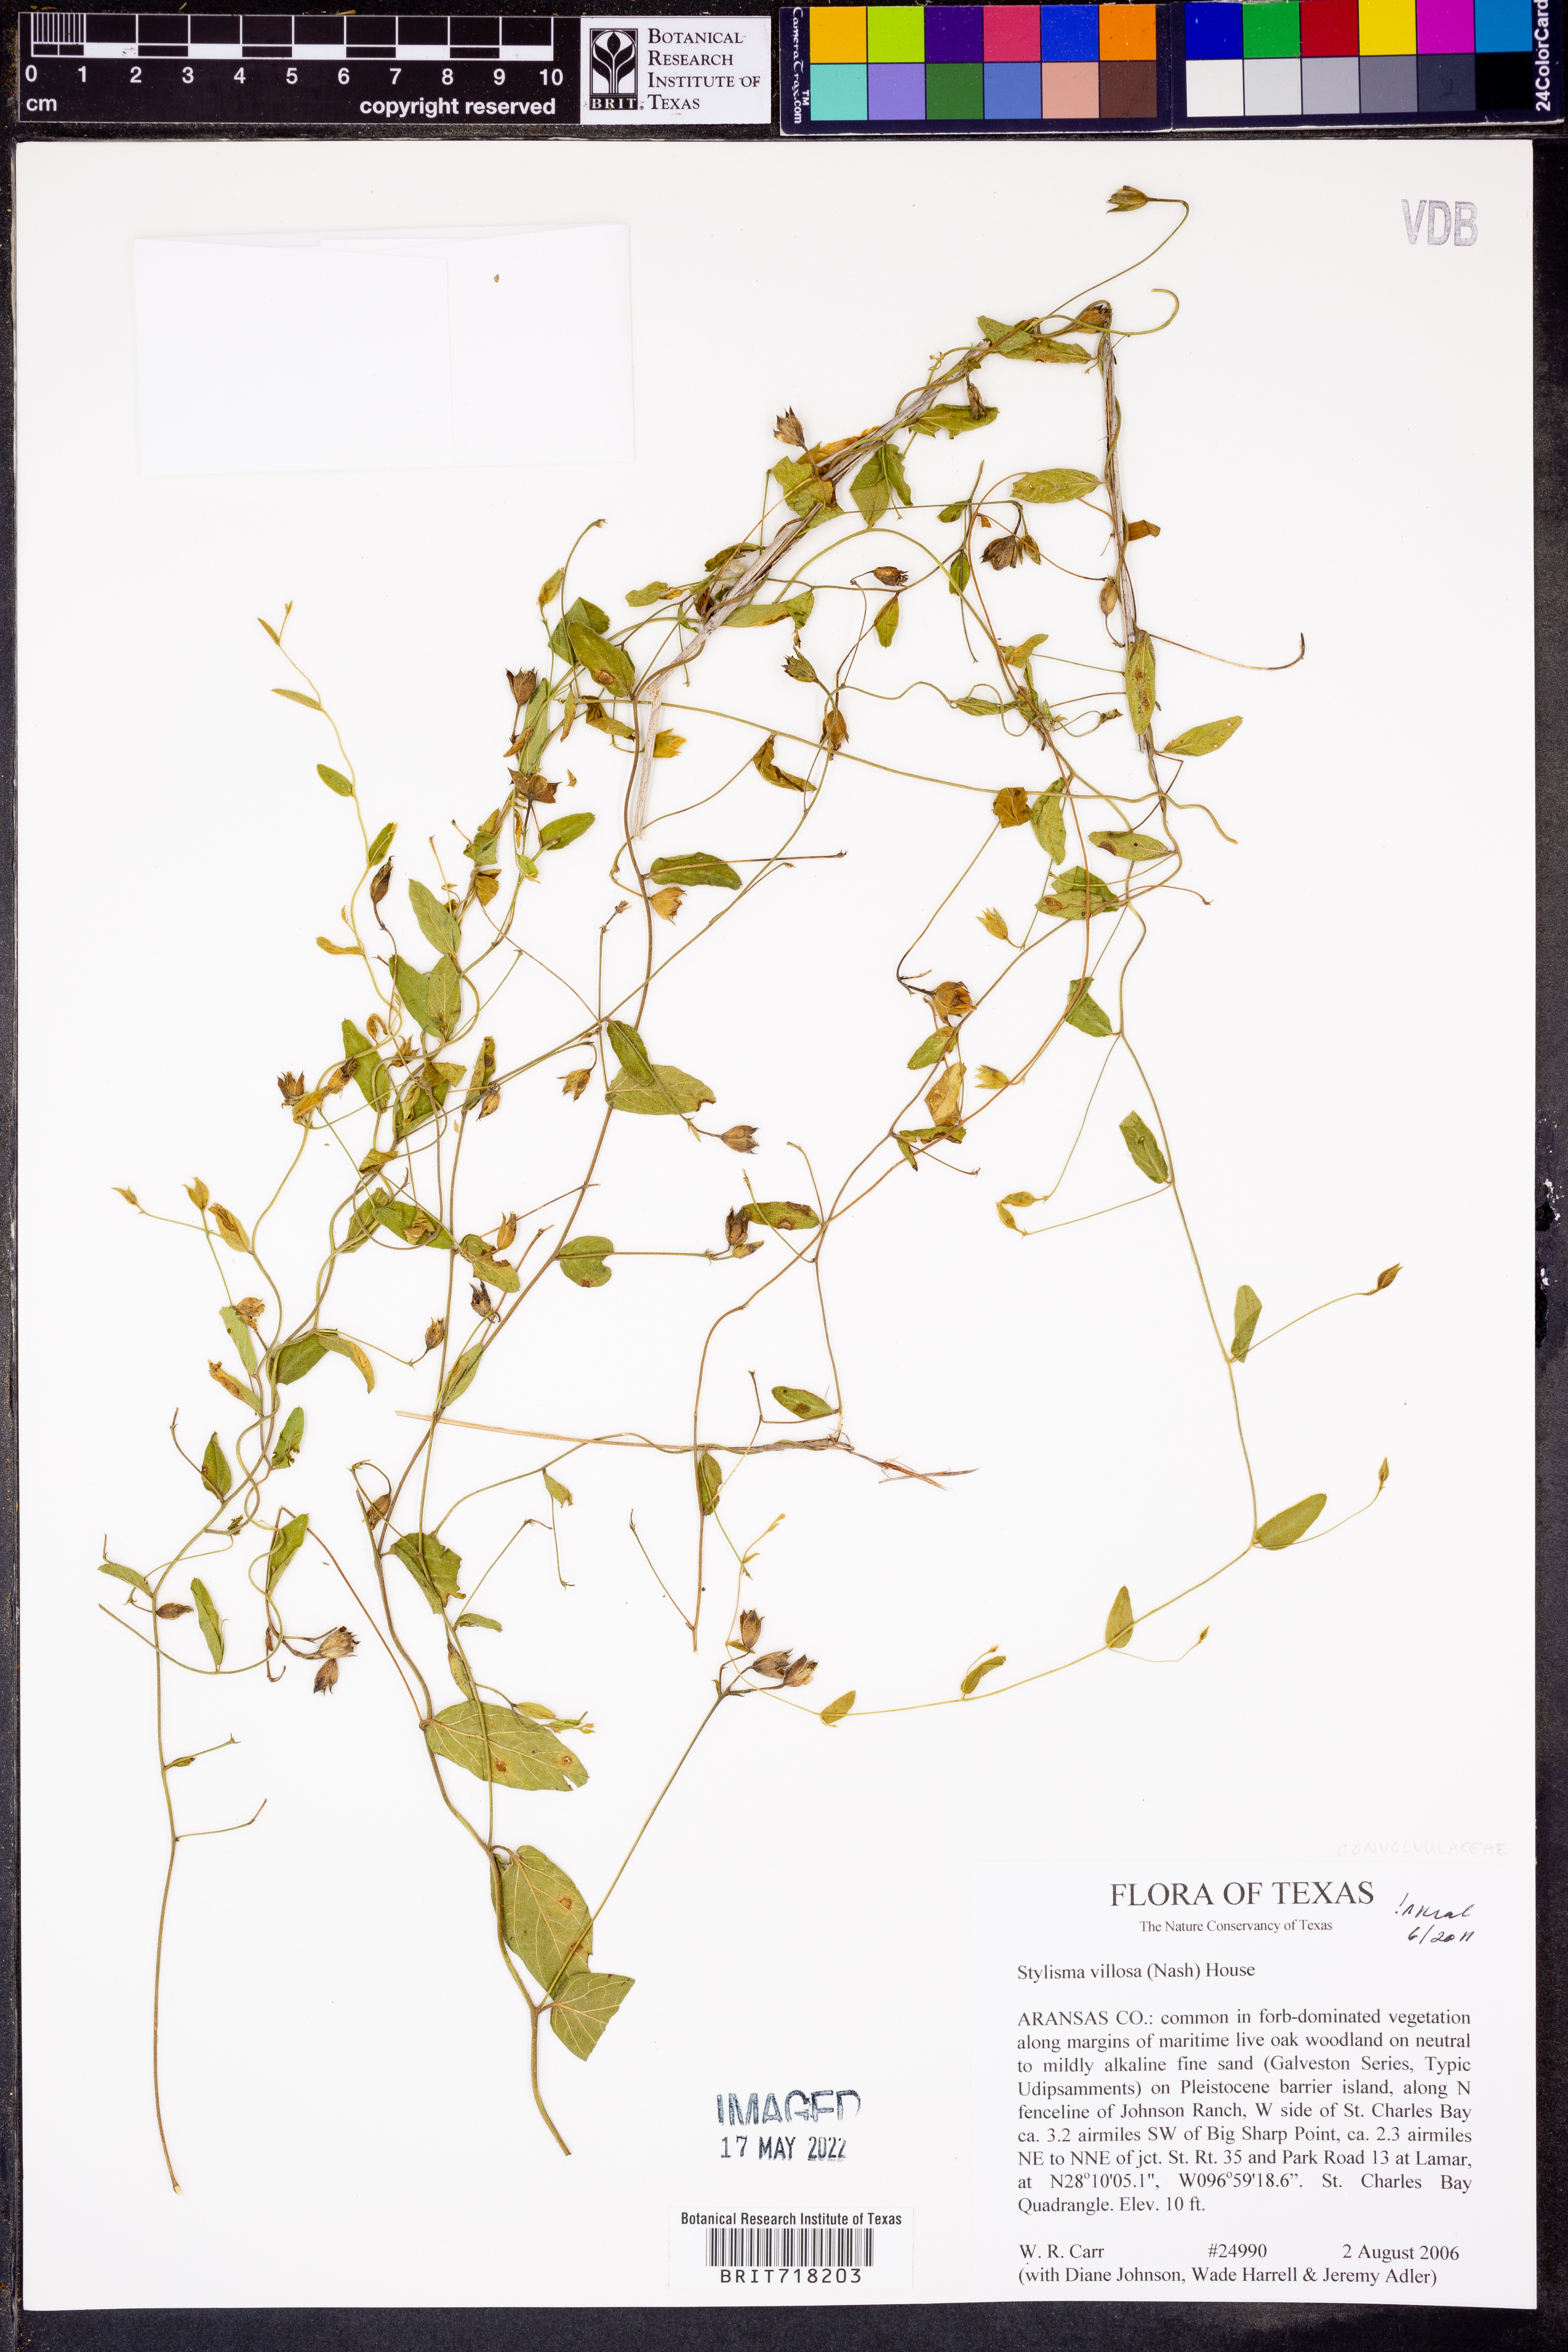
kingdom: Plantae
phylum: Tracheophyta
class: Magnoliopsida
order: Solanales
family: Convolvulaceae
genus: Stylisma
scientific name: Stylisma villosa
